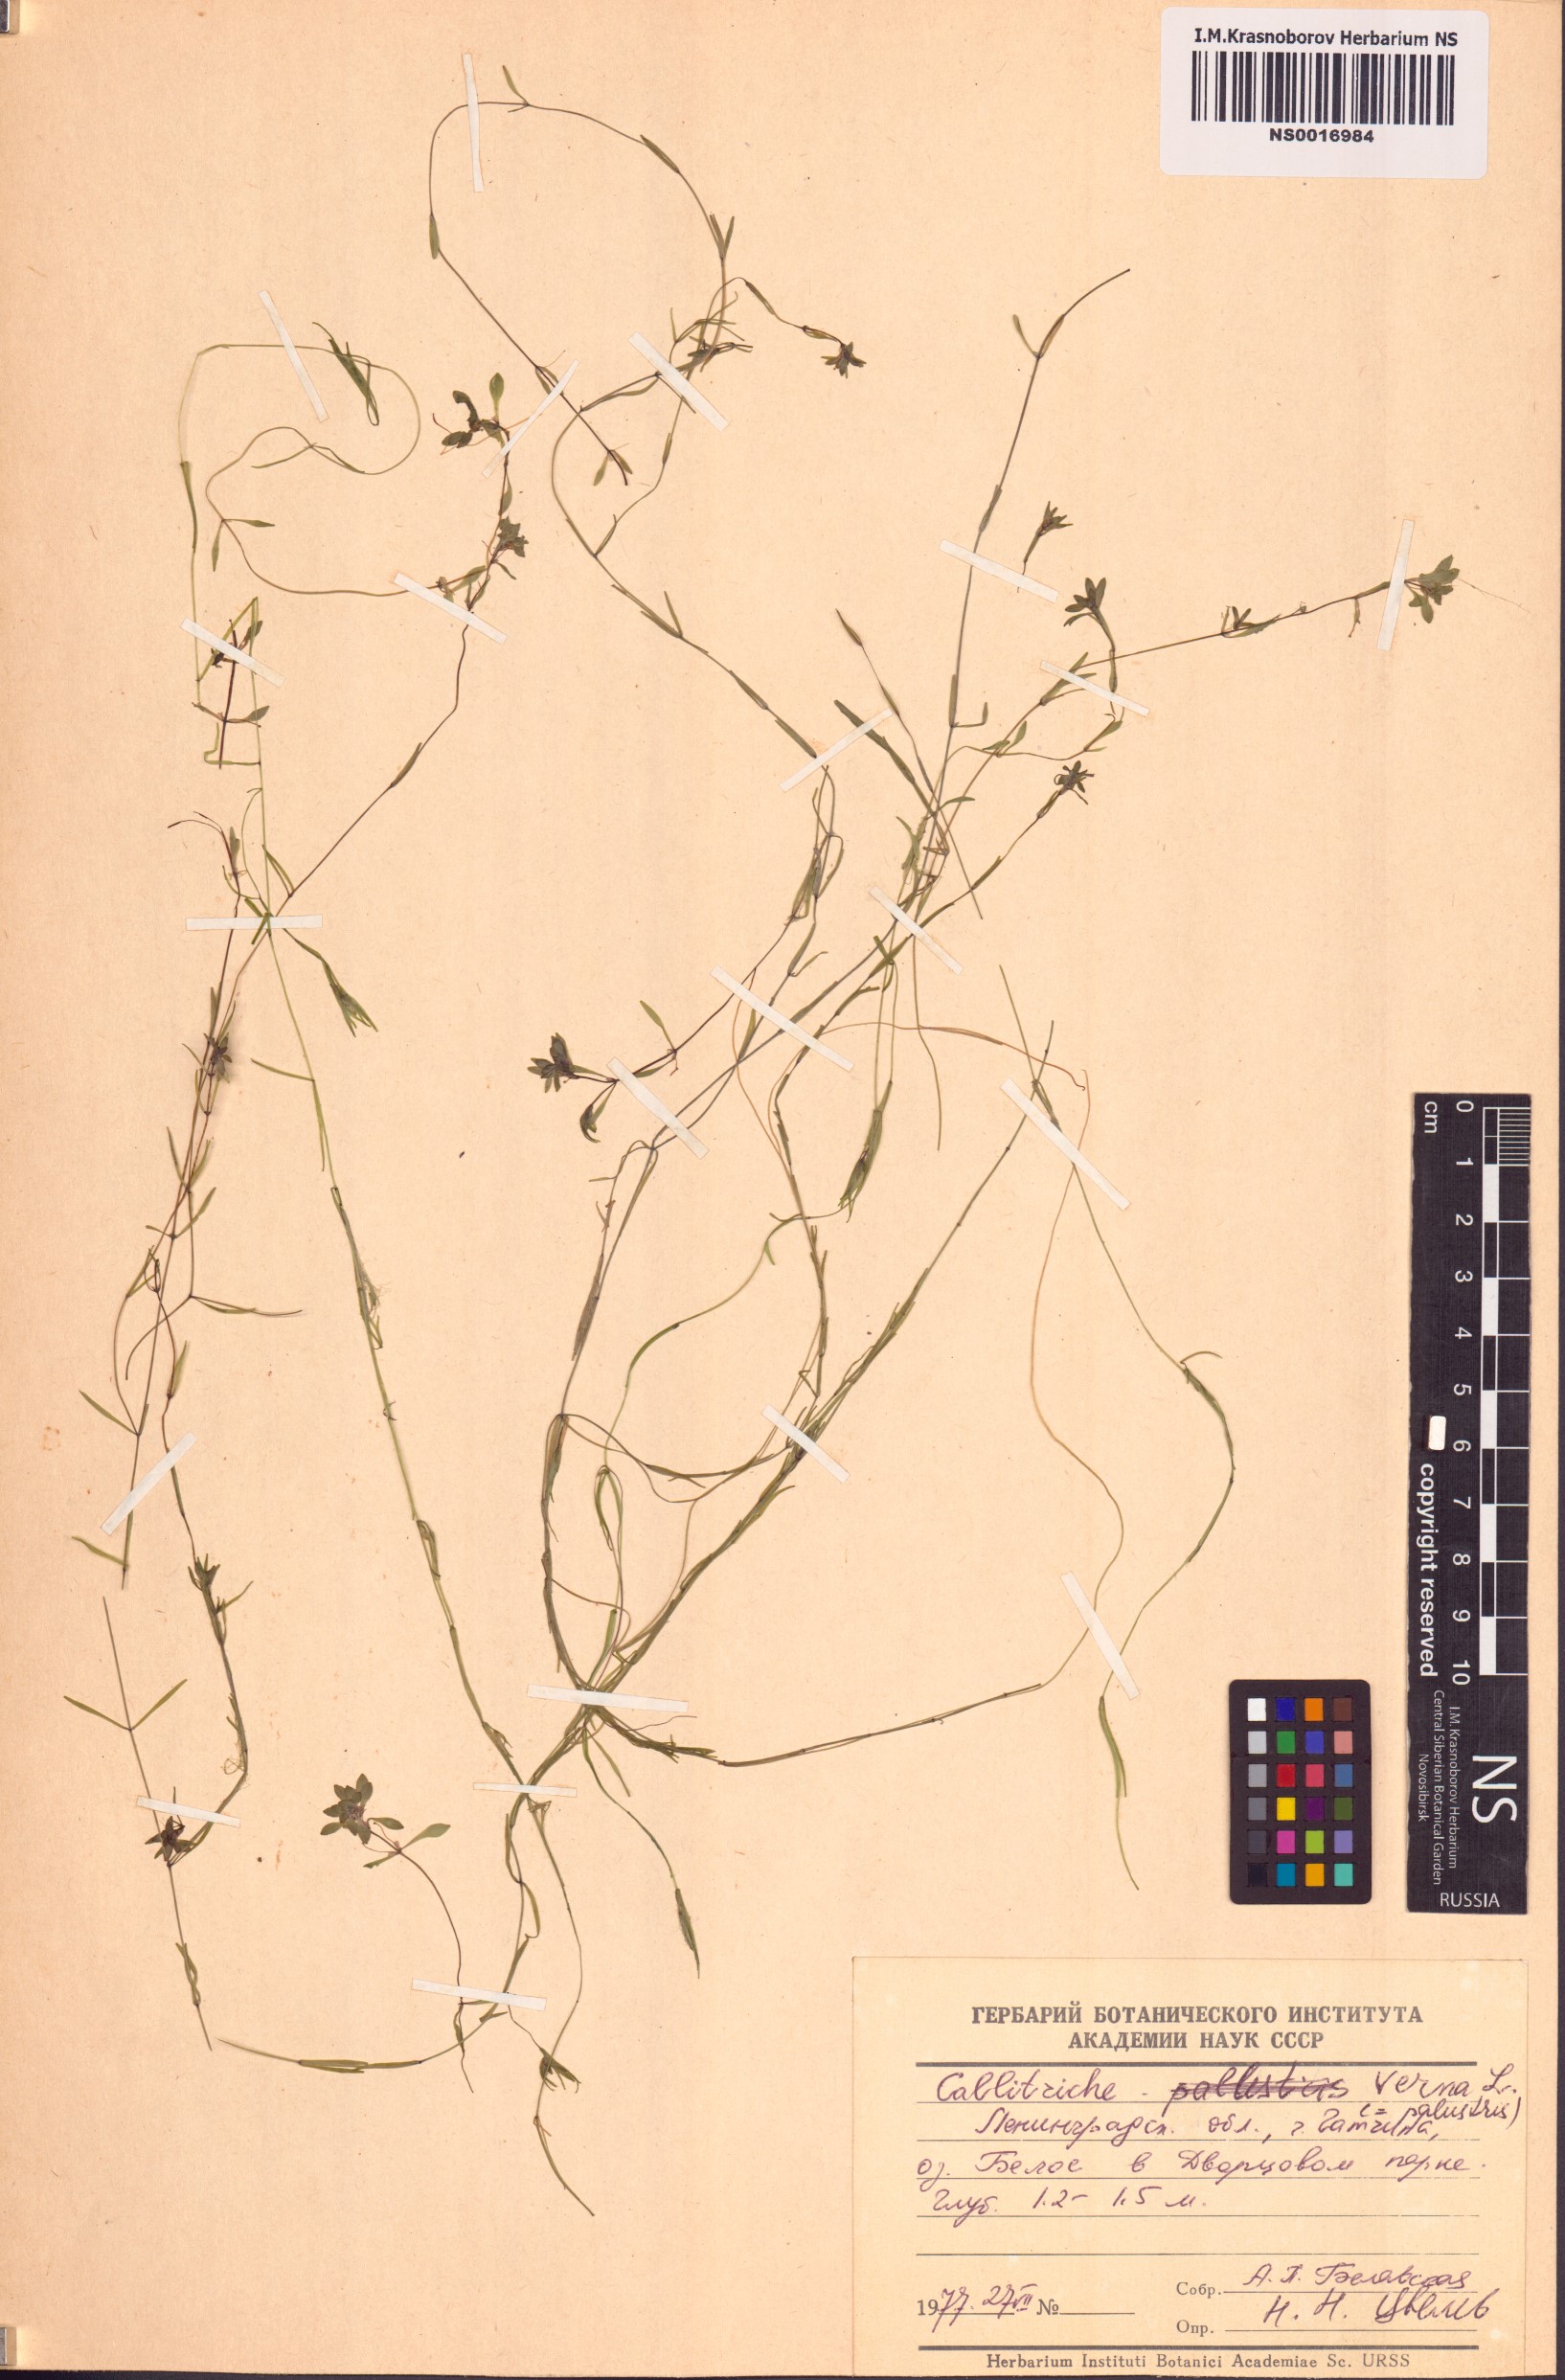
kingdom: Plantae
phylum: Tracheophyta
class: Magnoliopsida
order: Lamiales
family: Plantaginaceae
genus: Callitriche
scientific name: Callitriche palustris
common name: Spring water-starwort
